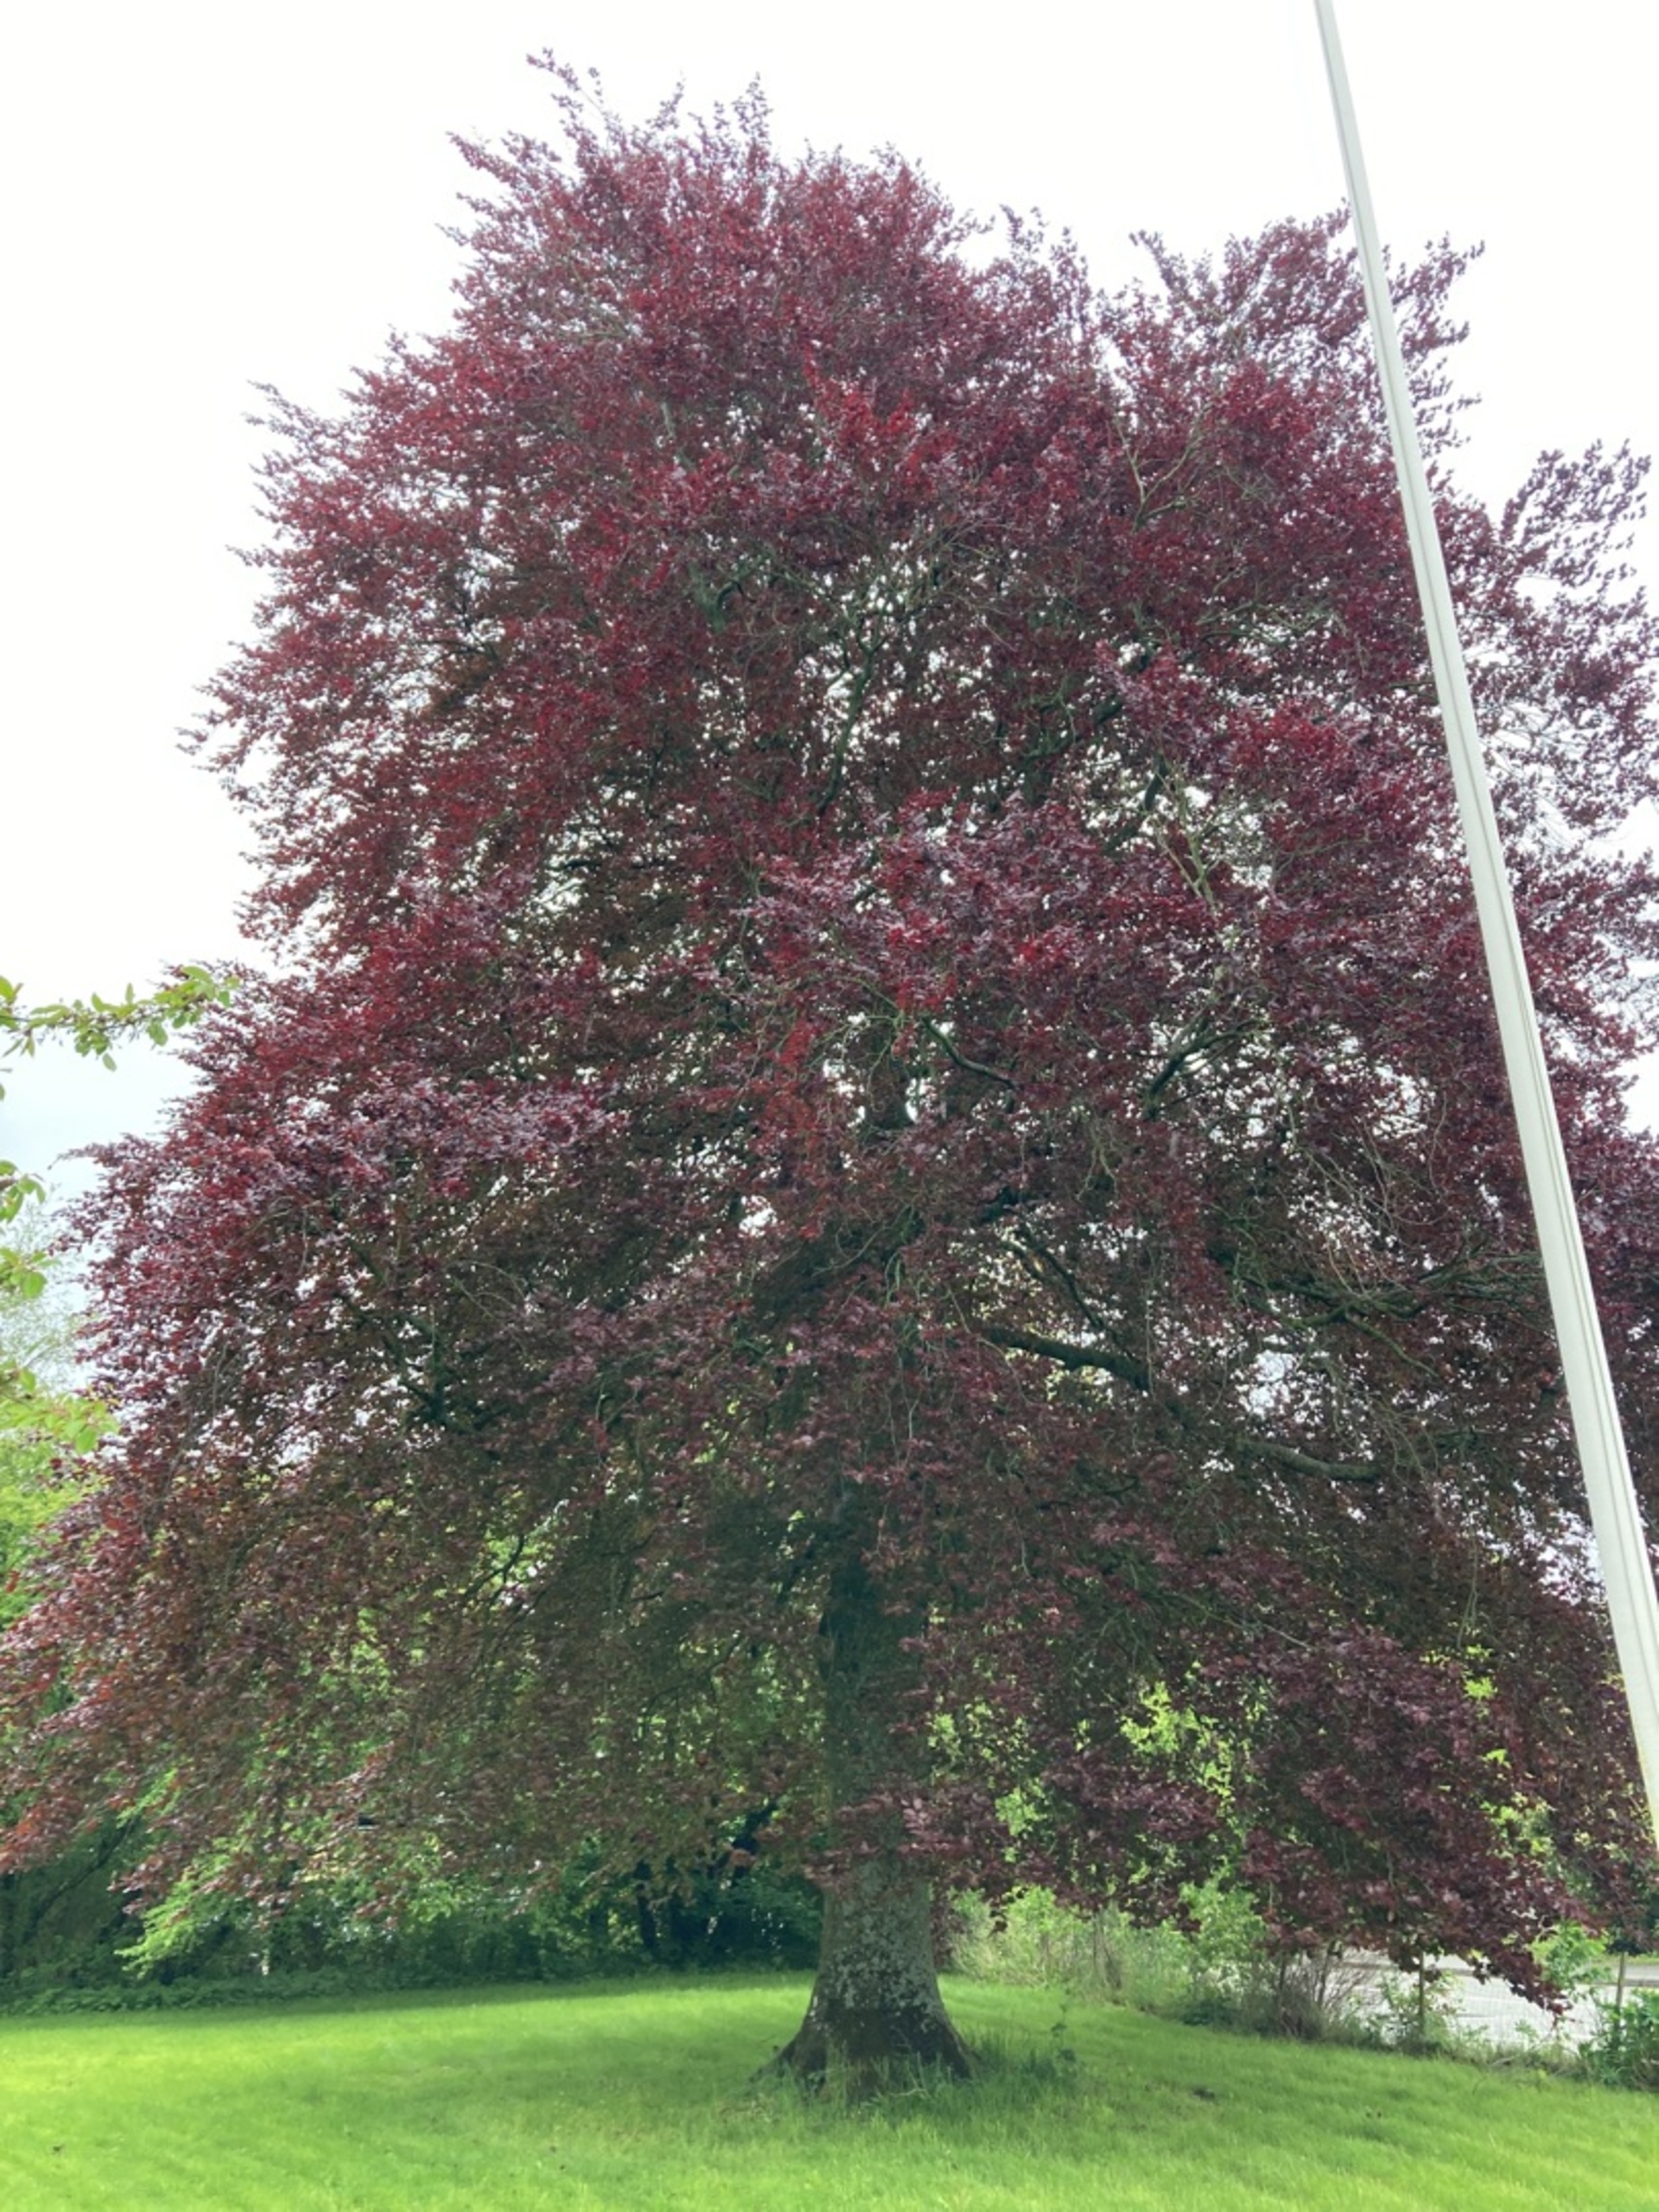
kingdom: Plantae
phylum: Tracheophyta
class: Magnoliopsida
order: Fagales
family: Fagaceae
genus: Fagus
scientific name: Fagus sylvatica
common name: Bøg
